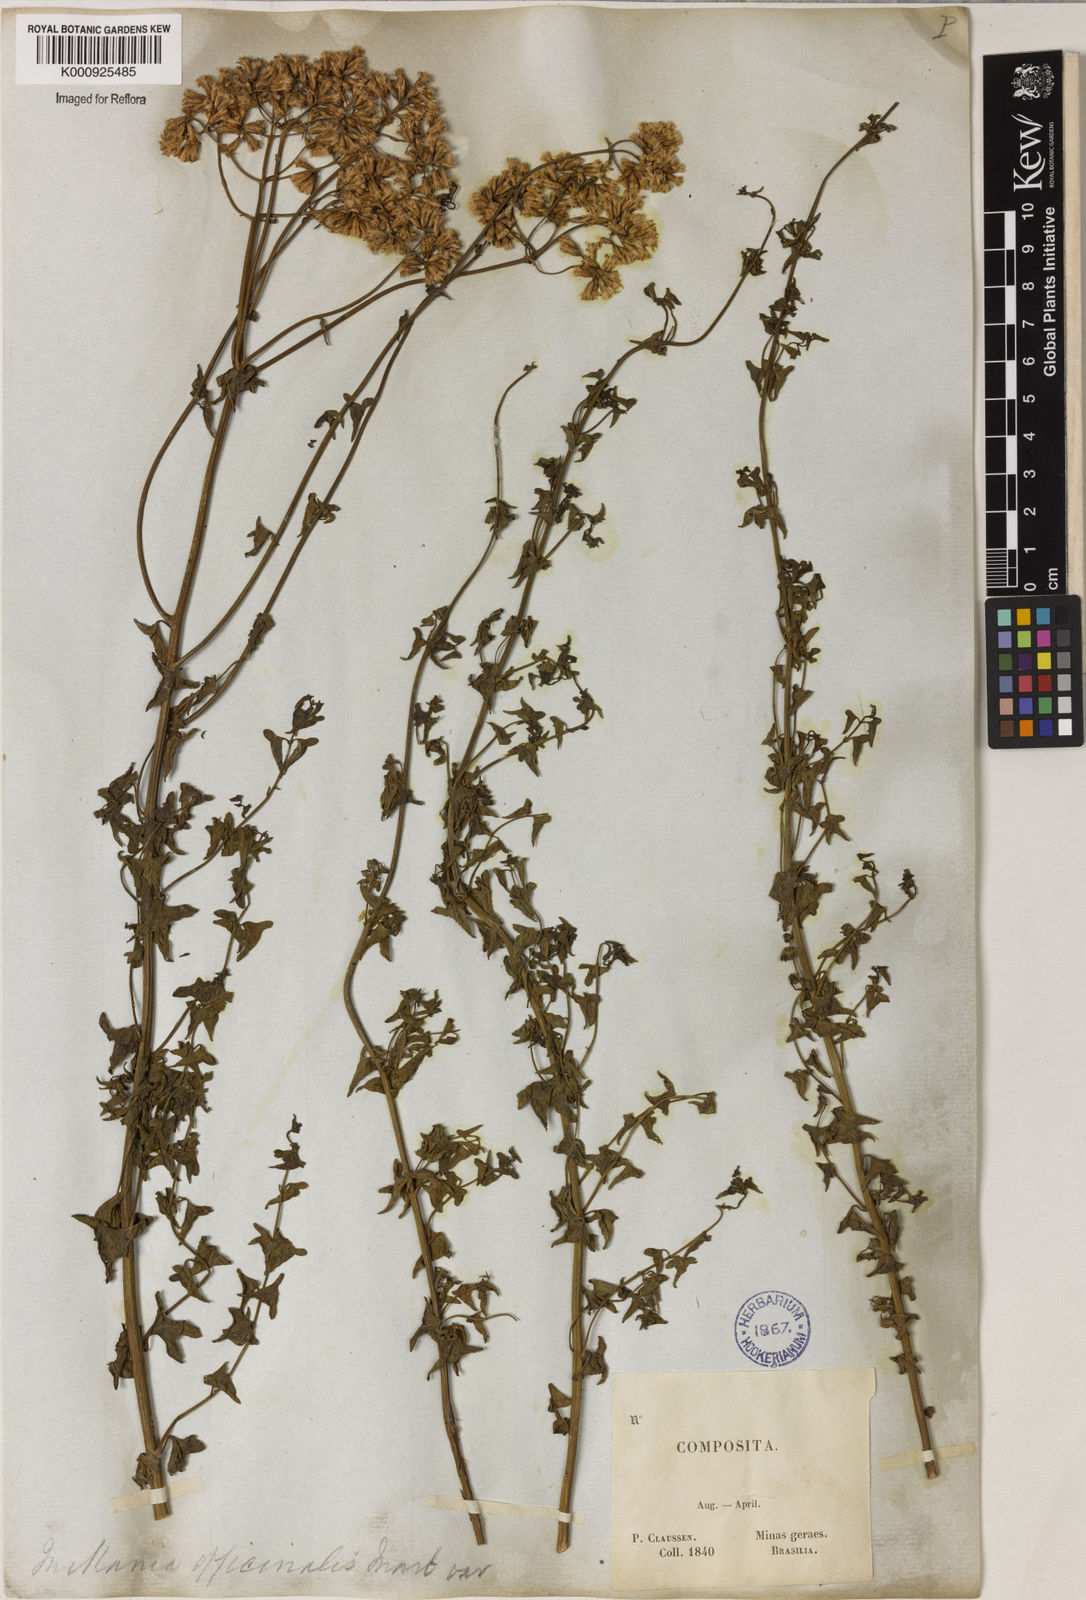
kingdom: Plantae
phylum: Tracheophyta
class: Magnoliopsida
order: Asterales
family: Asteraceae
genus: Mikania
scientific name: Mikania officinalis
